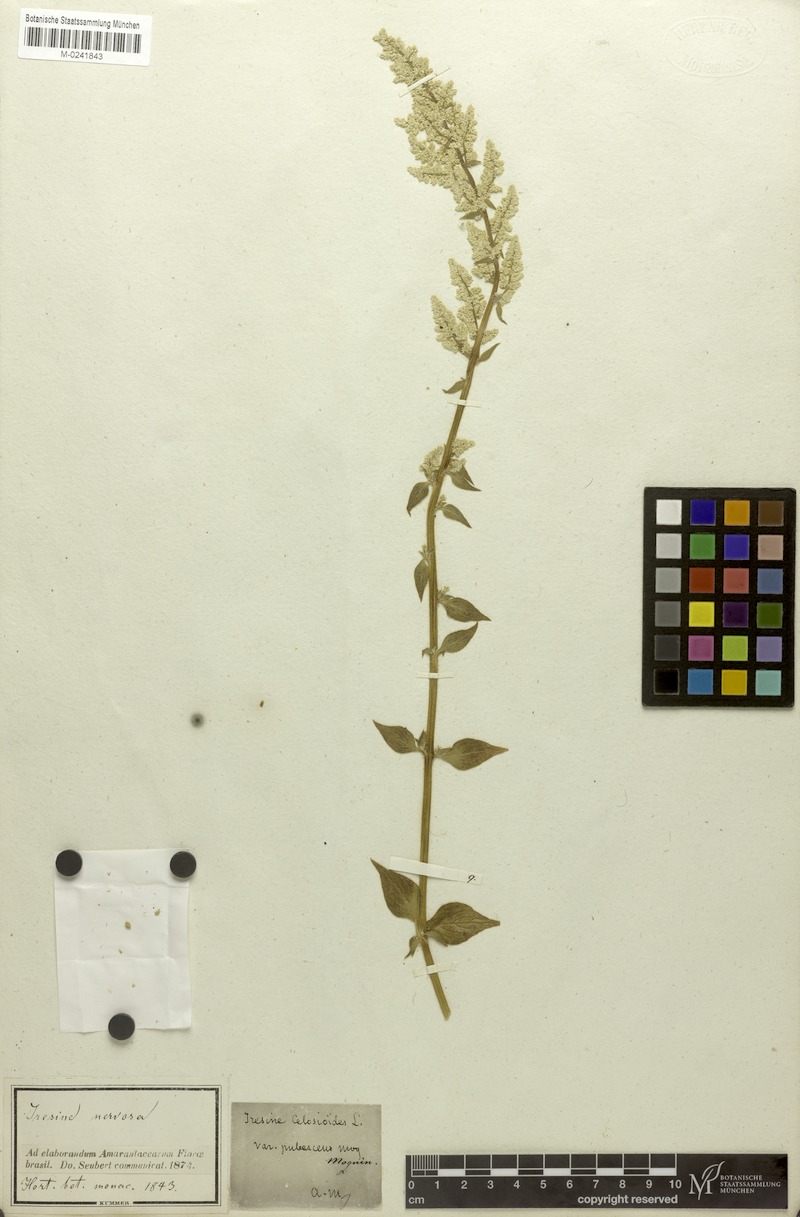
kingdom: Plantae
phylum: Tracheophyta
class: Magnoliopsida
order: Caryophyllales
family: Amaranthaceae
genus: Iresine
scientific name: Iresine diffusa
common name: Juba's-bush
